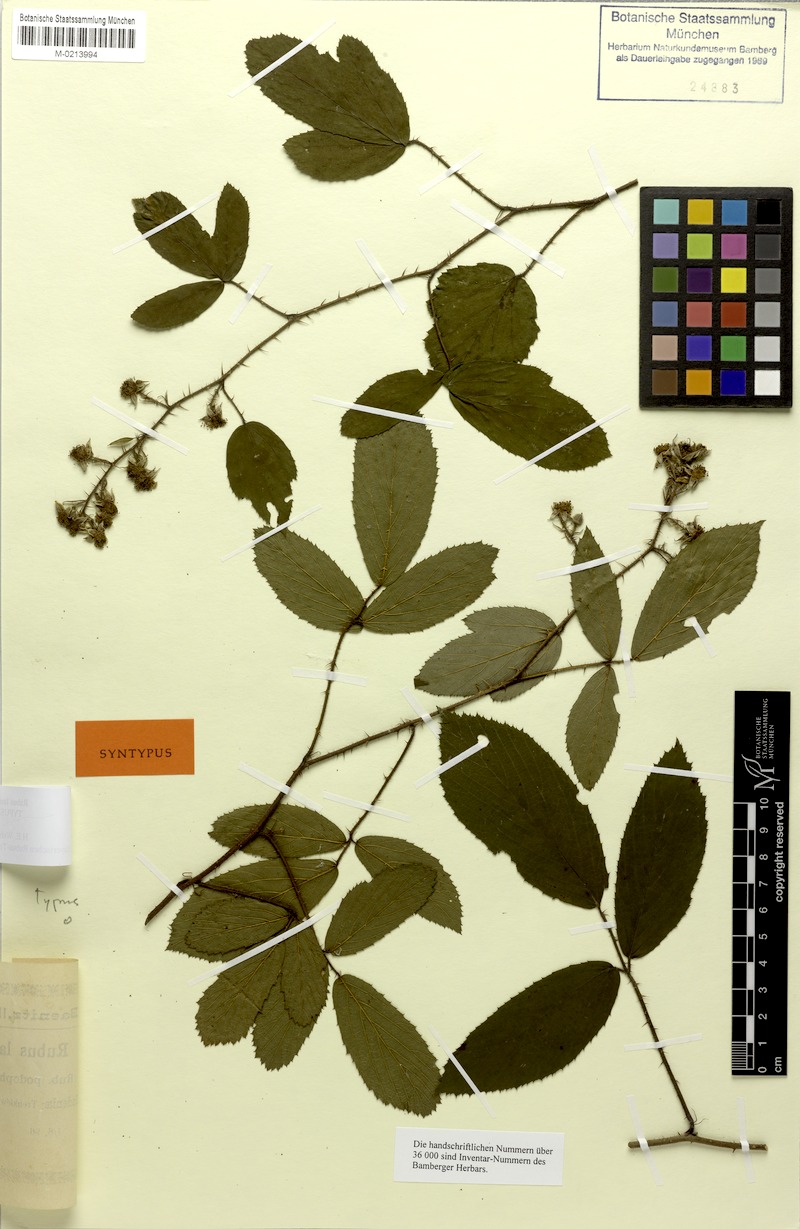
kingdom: Plantae
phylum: Tracheophyta
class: Magnoliopsida
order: Rosales
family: Rosaceae
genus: Rubus
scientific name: Rubus rivularis
